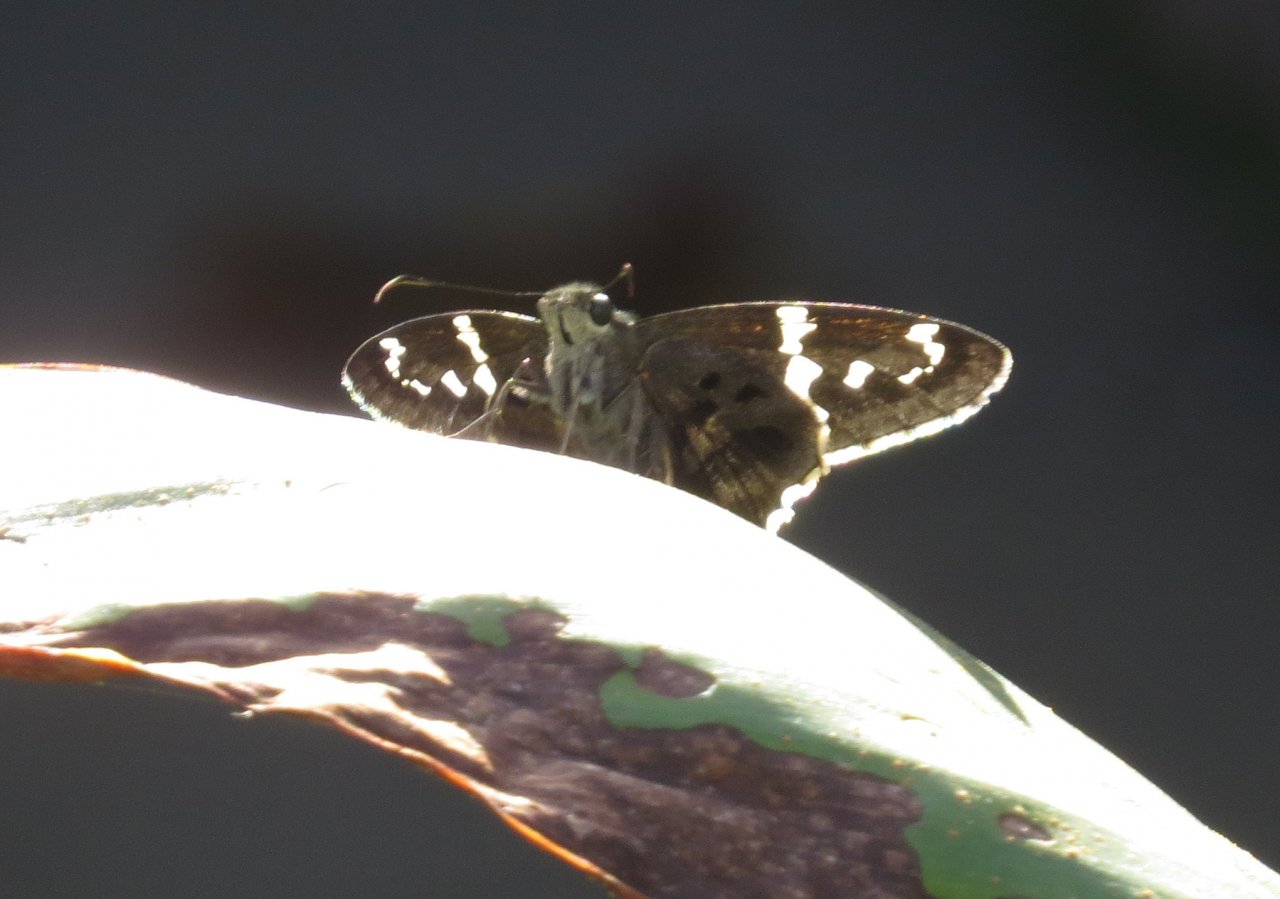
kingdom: Animalia
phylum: Arthropoda
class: Insecta
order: Lepidoptera
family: Hesperiidae
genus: Urbanus
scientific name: Urbanus proteus
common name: Long-tailed Skipper
